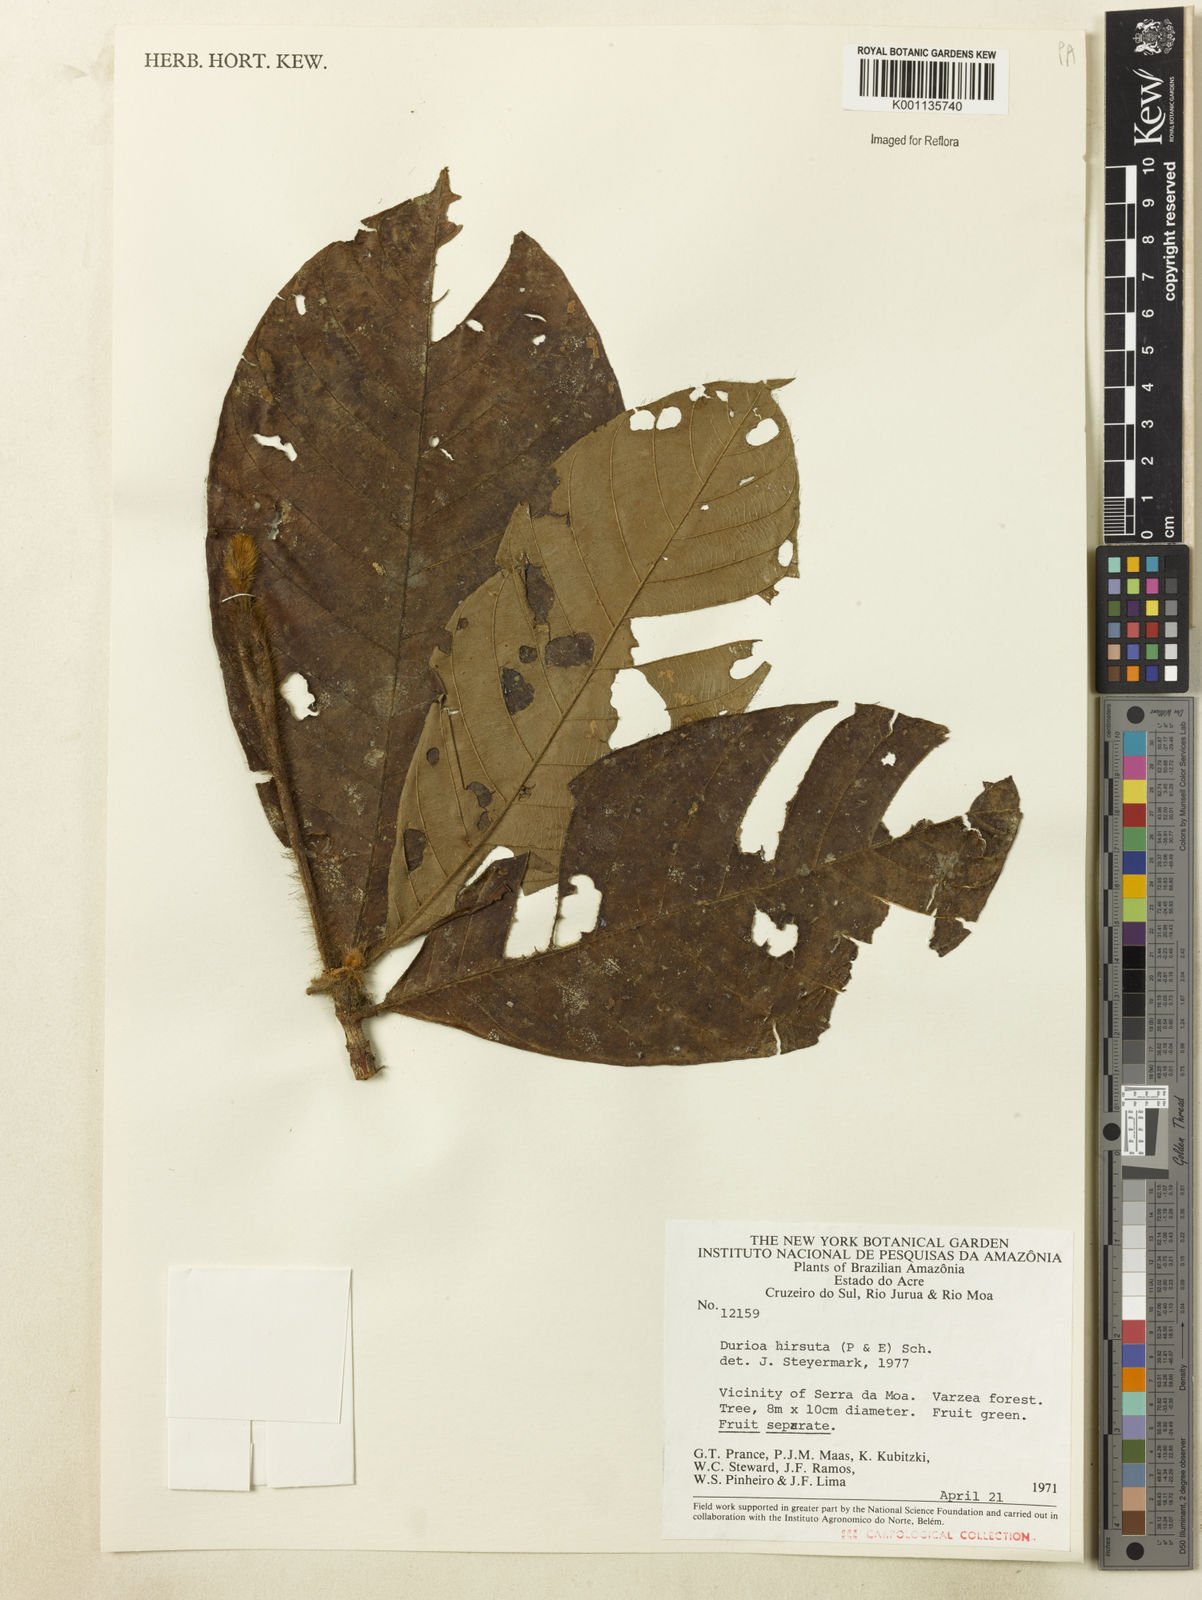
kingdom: Plantae
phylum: Tracheophyta
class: Magnoliopsida
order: Gentianales
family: Rubiaceae
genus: Duroia
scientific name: Duroia hirsuta
